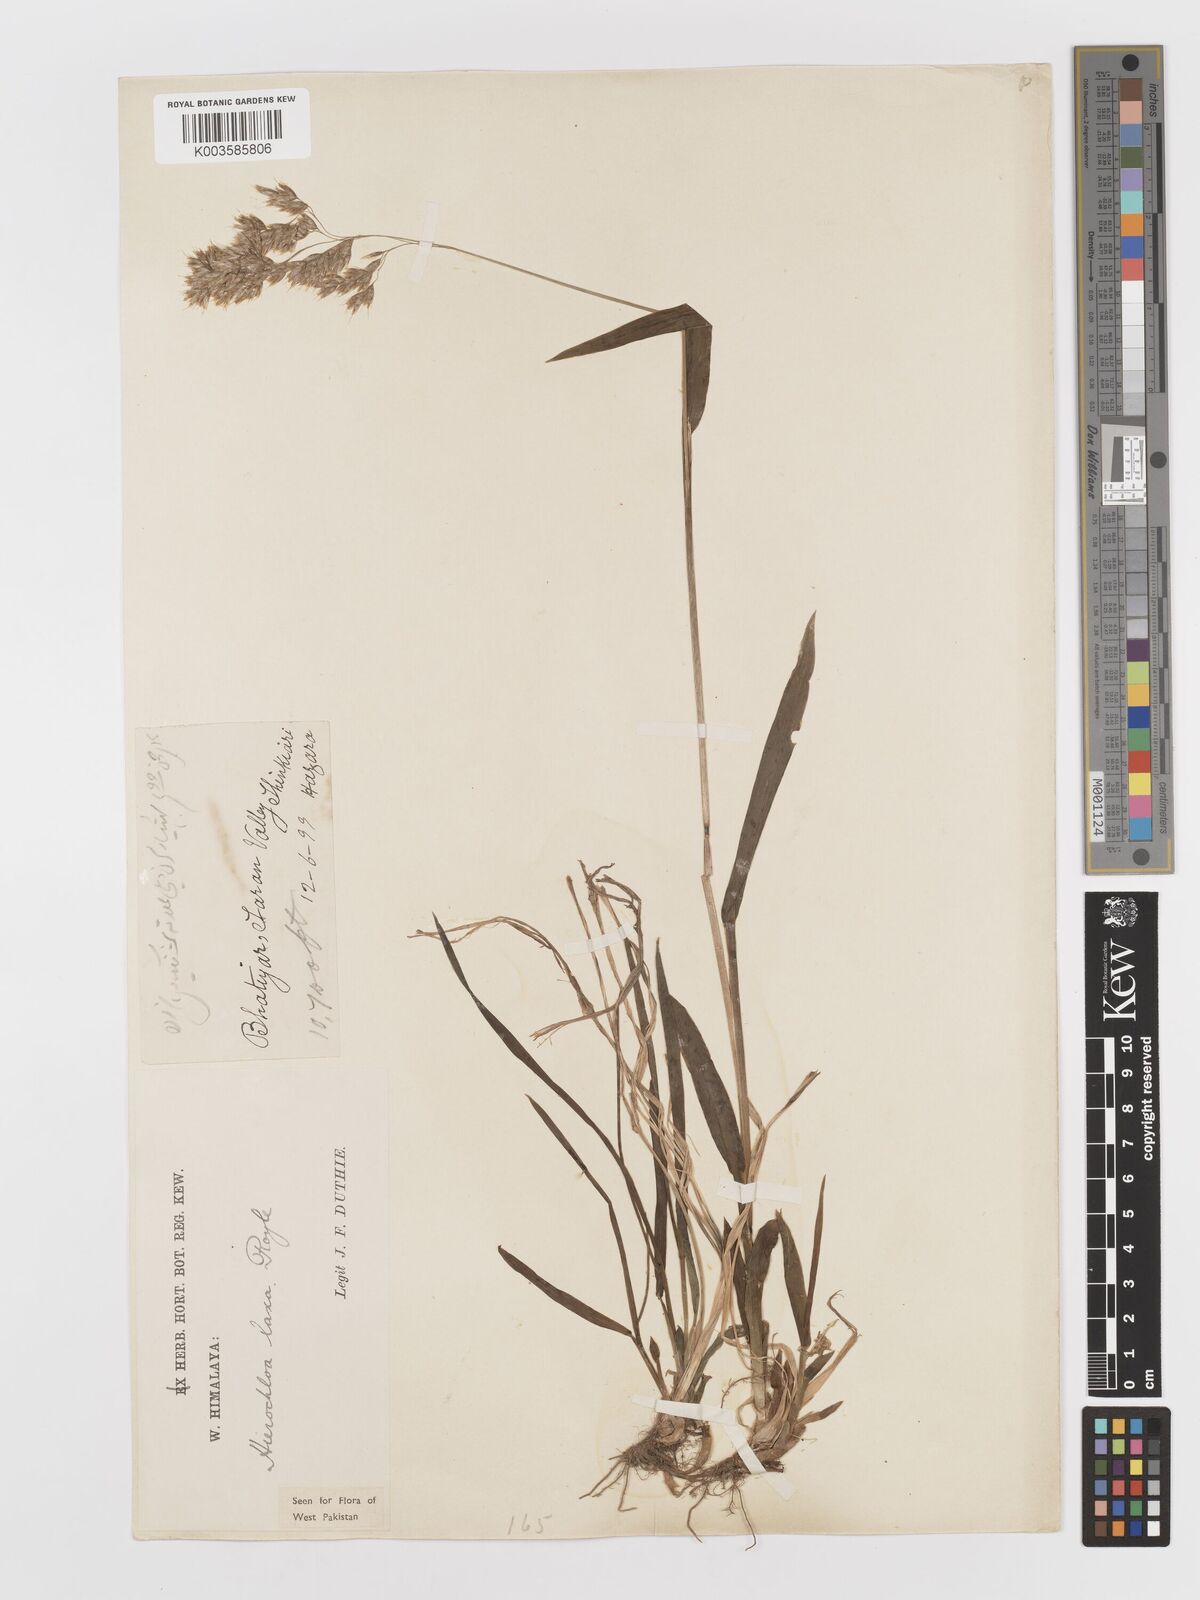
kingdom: Plantae
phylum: Tracheophyta
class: Liliopsida
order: Poales
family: Poaceae
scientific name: Poaceae
